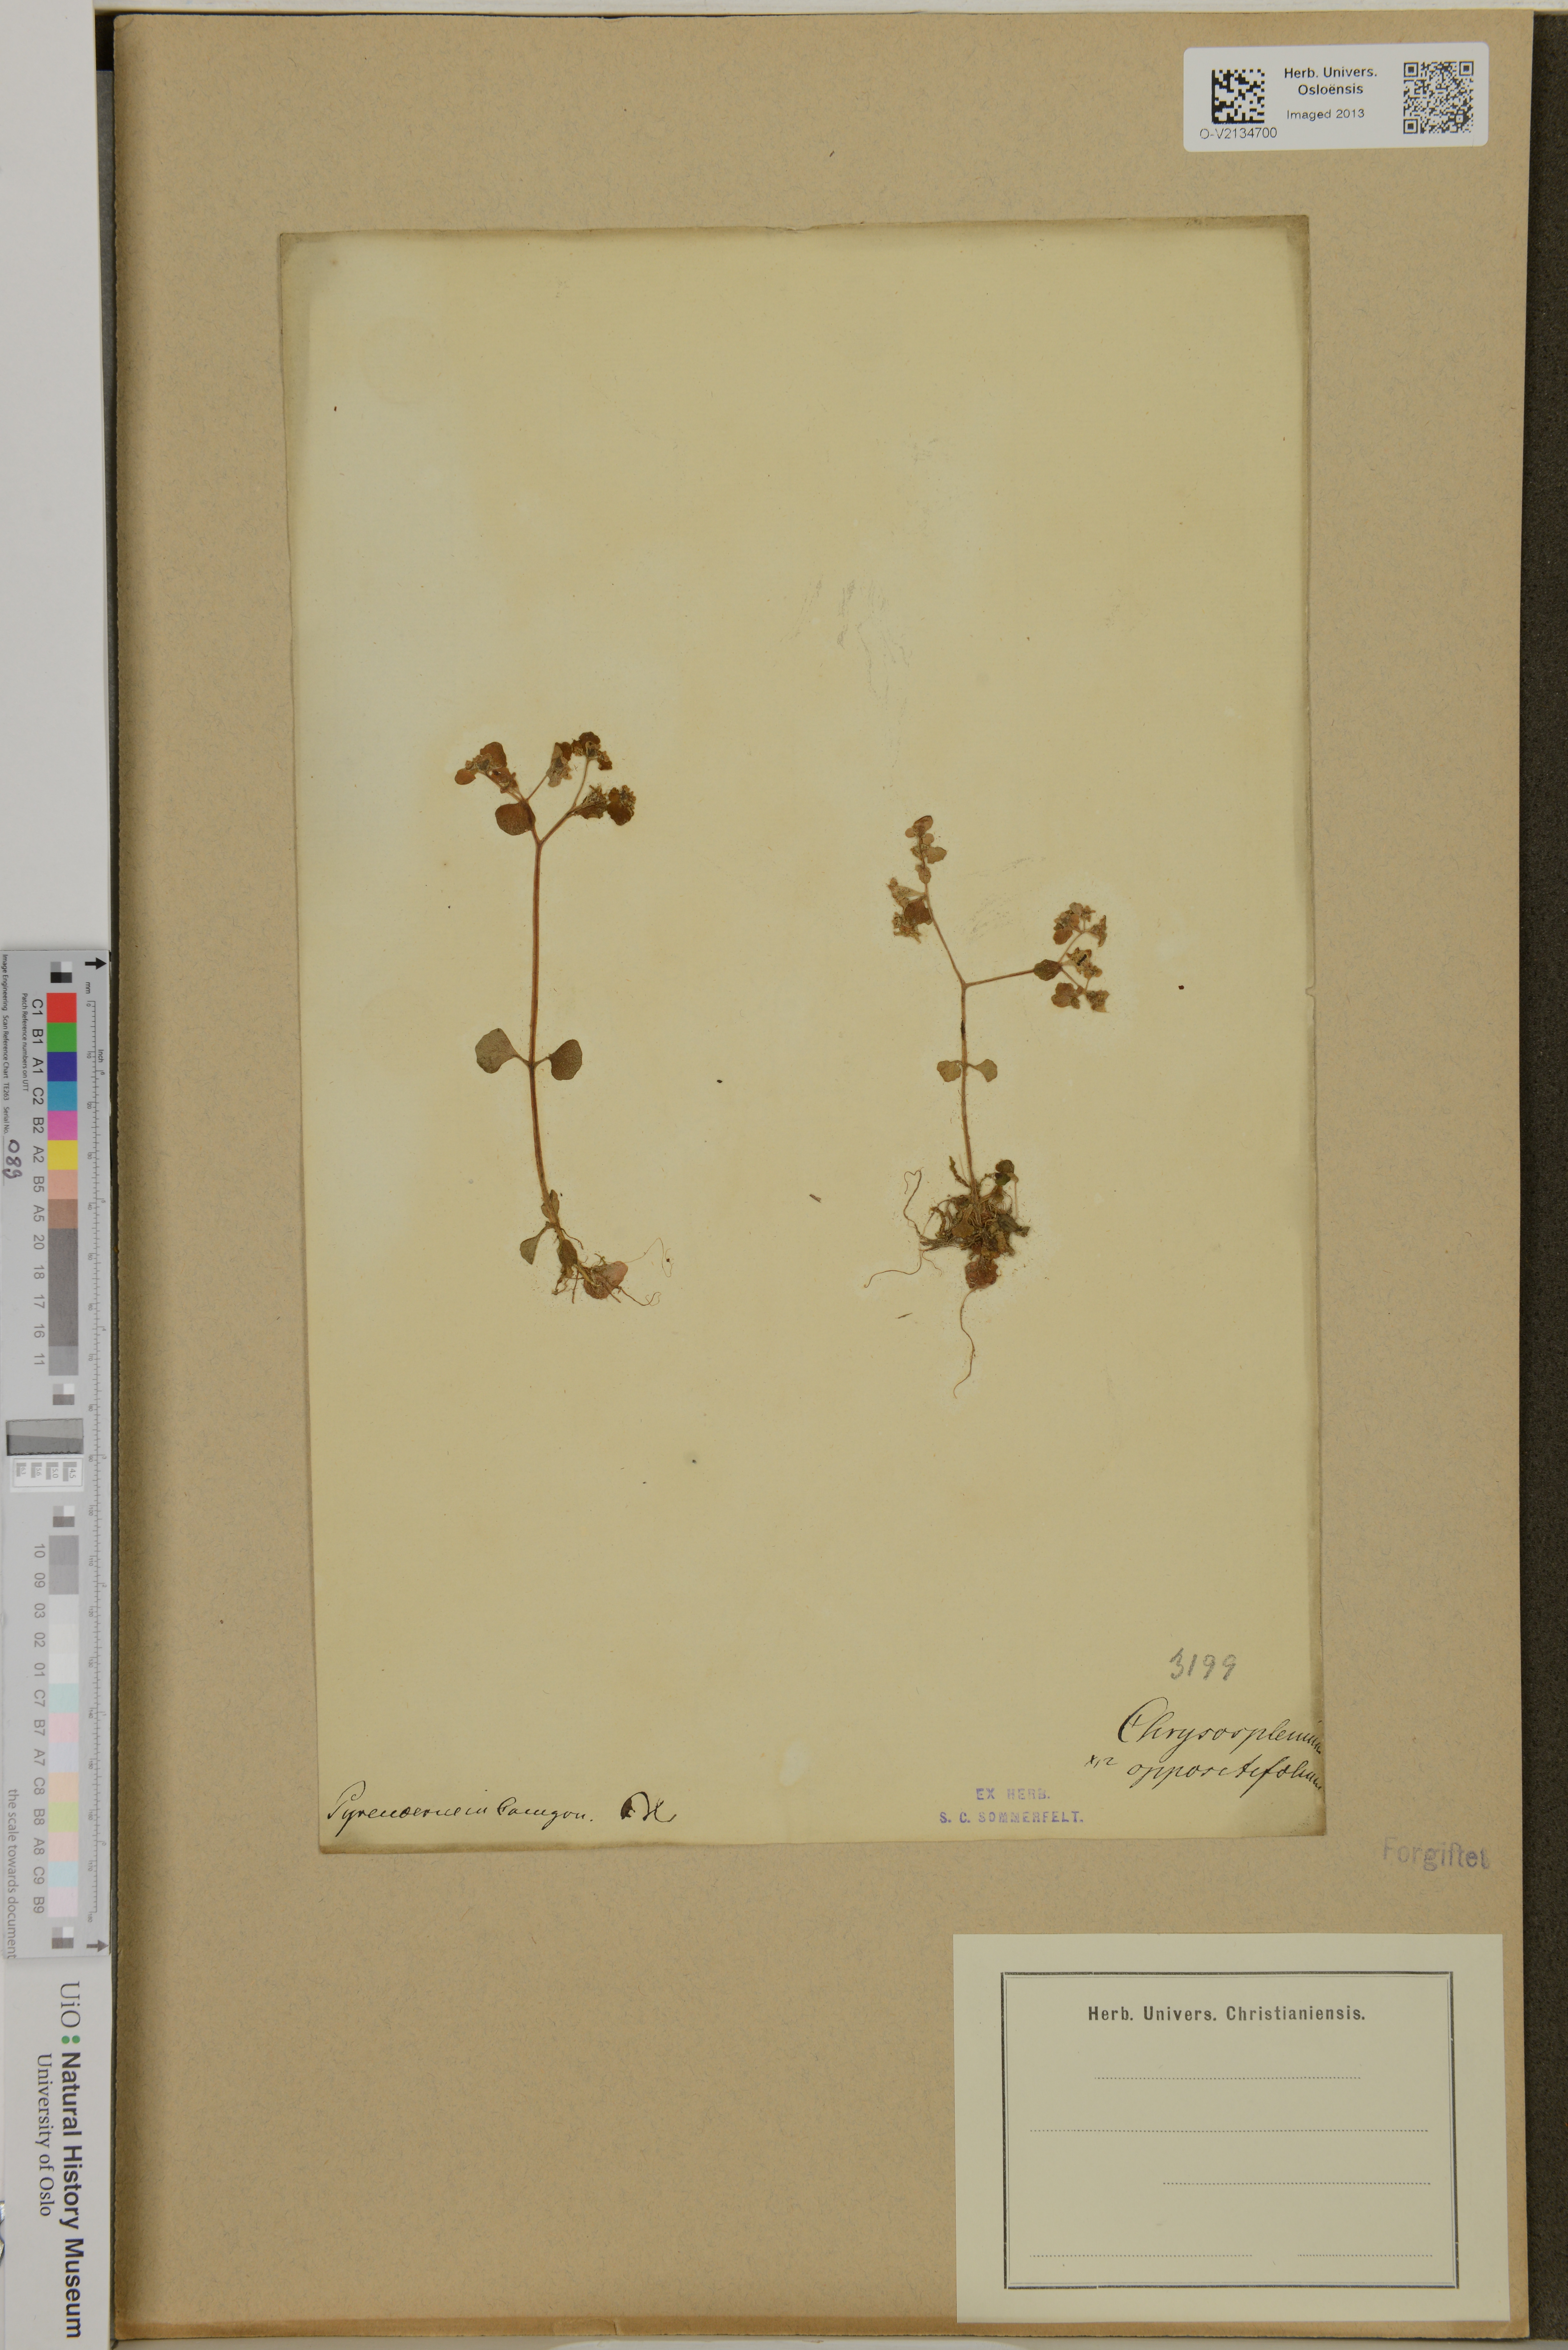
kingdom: Plantae
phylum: Tracheophyta
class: Magnoliopsida
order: Saxifragales
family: Saxifragaceae
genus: Chrysosplenium
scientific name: Chrysosplenium oppositifolium
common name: Opposite-leaved golden-saxifrage
